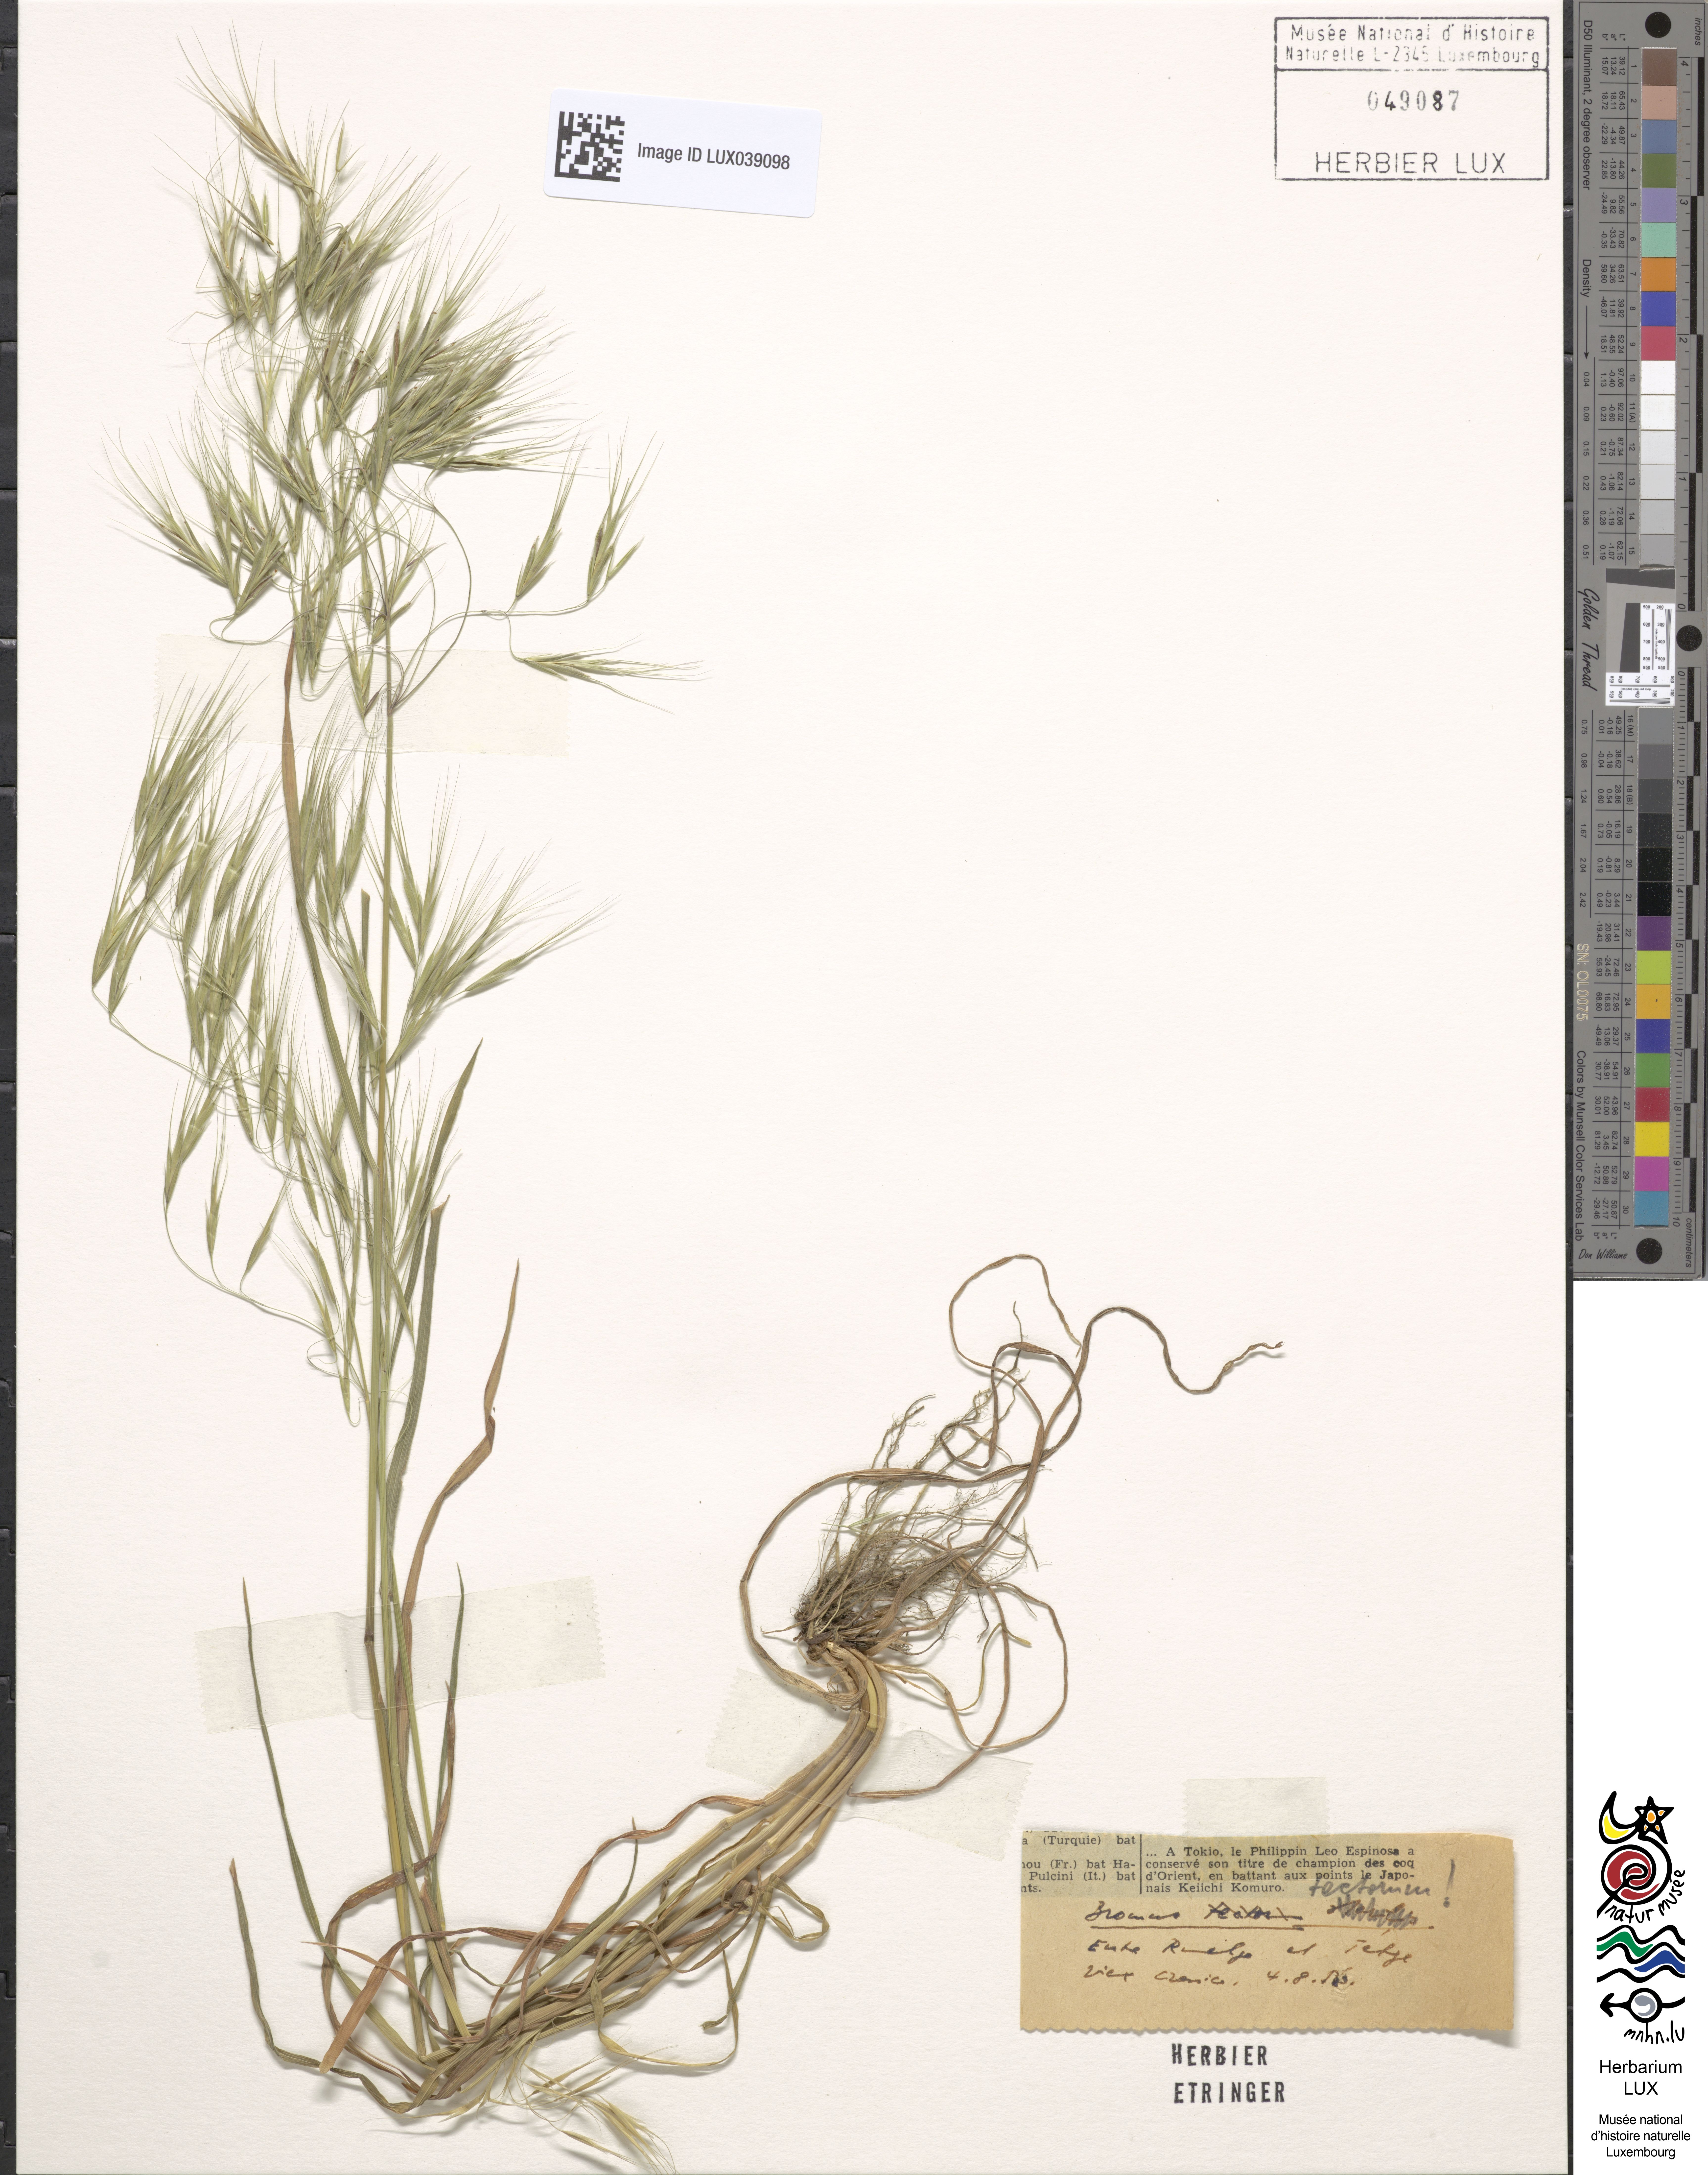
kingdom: Plantae
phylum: Tracheophyta
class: Liliopsida
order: Poales
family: Poaceae
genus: Bromus
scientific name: Bromus tectorum
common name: Cheatgrass
